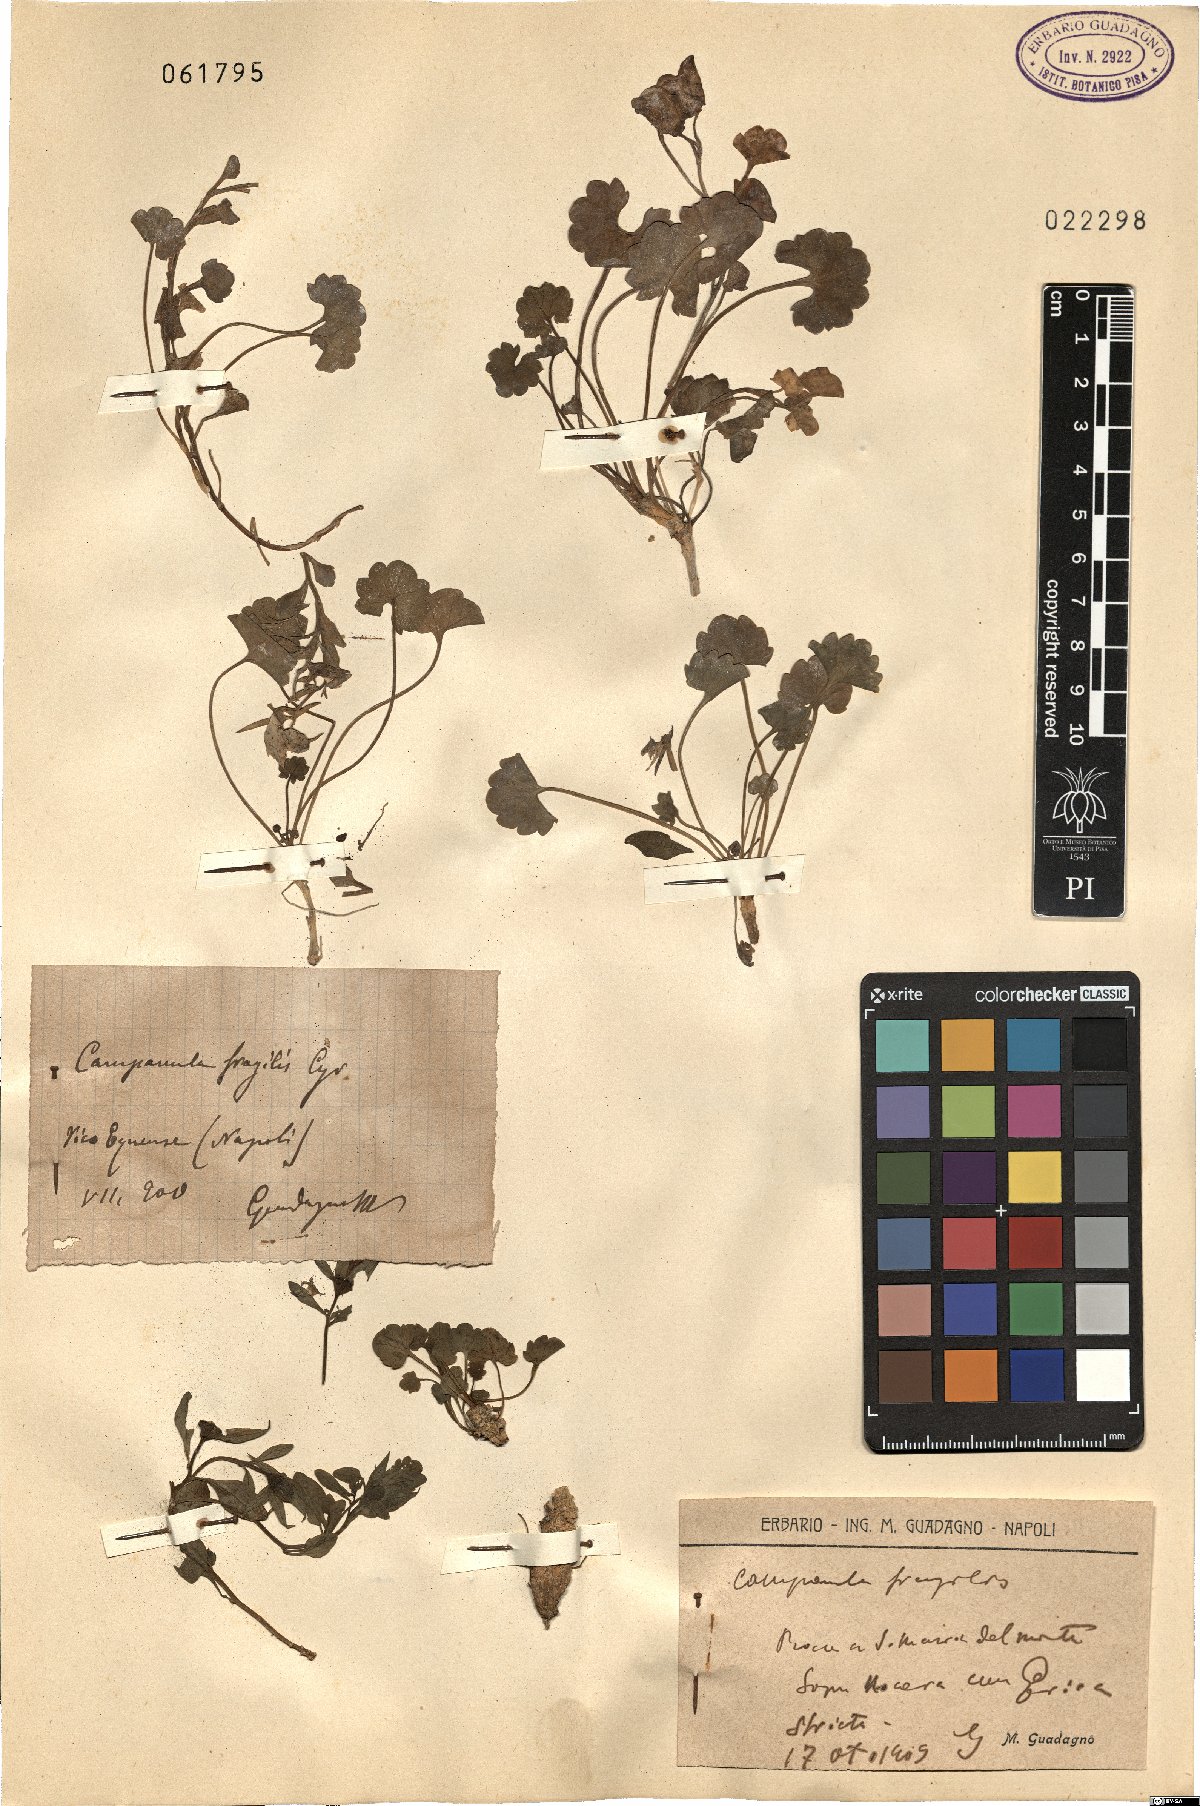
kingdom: Plantae
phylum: Tracheophyta
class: Magnoliopsida
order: Asterales
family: Campanulaceae
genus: Campanula
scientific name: Campanula fragilis
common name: Italian bellflower
